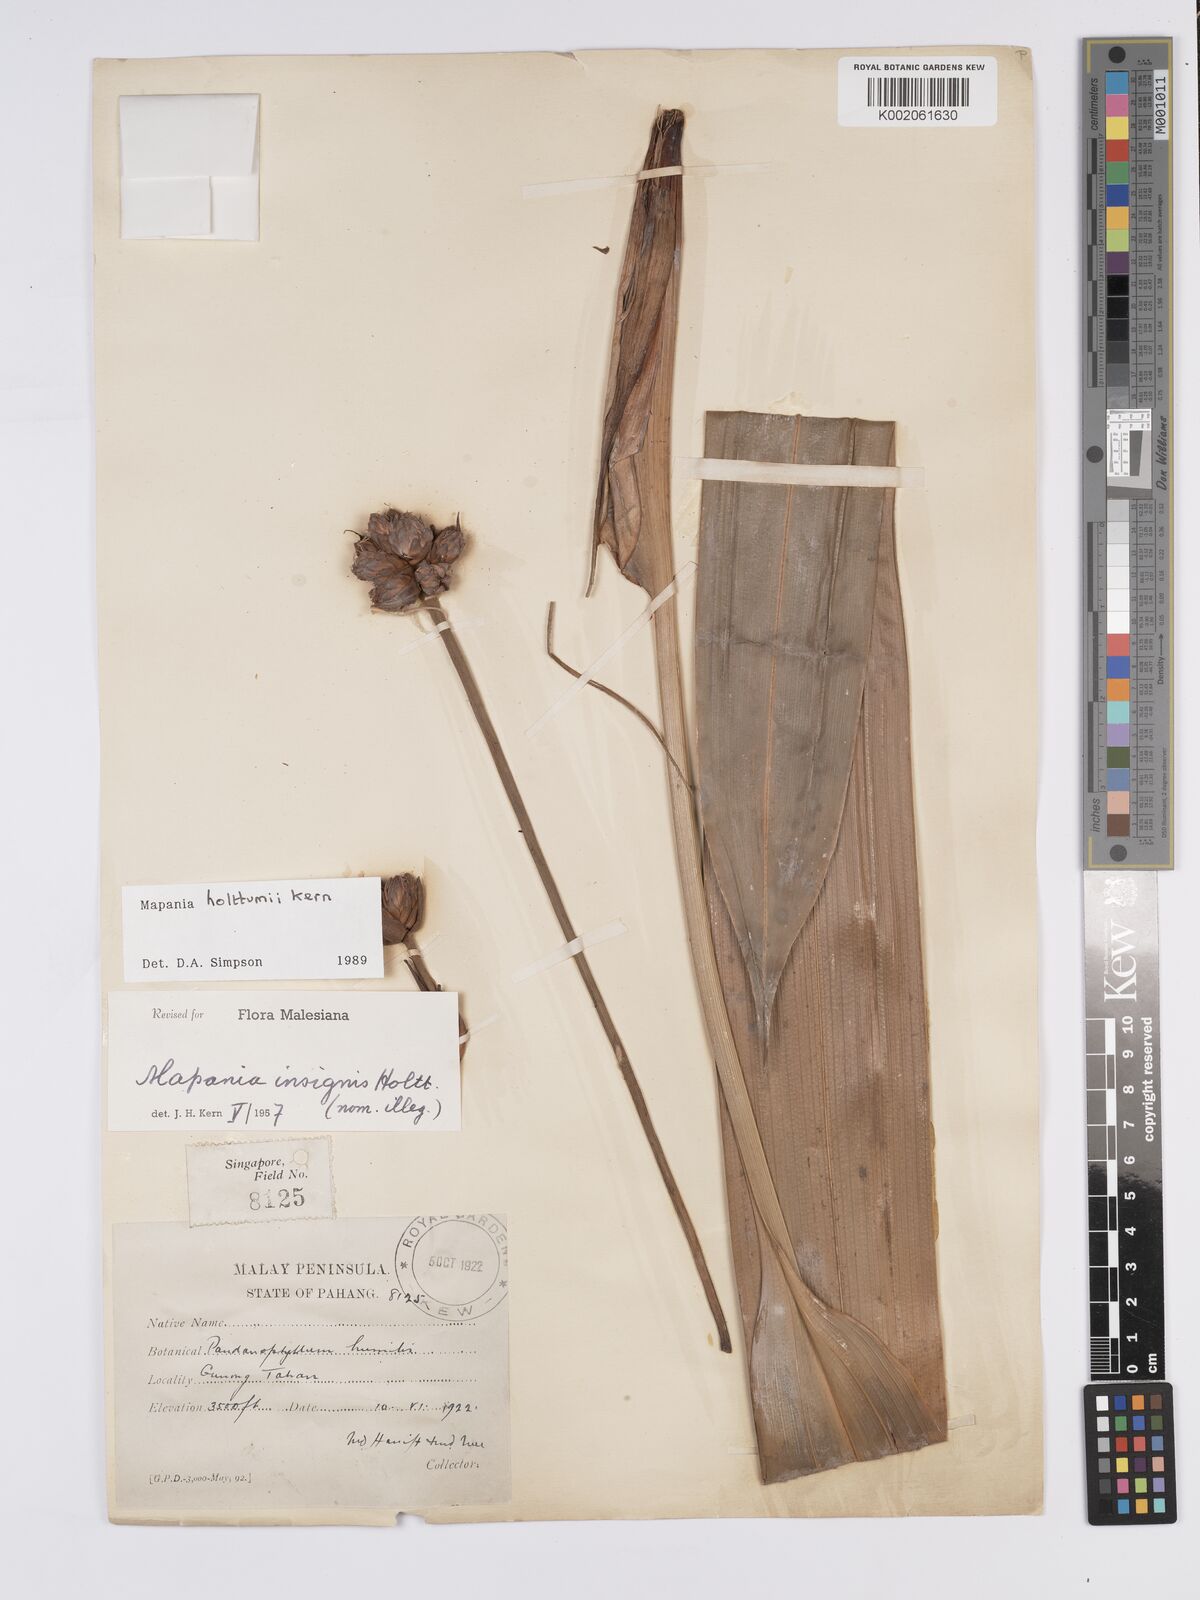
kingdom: Plantae
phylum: Tracheophyta
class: Liliopsida
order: Poales
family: Cyperaceae
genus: Mapania
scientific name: Mapania holttumii
